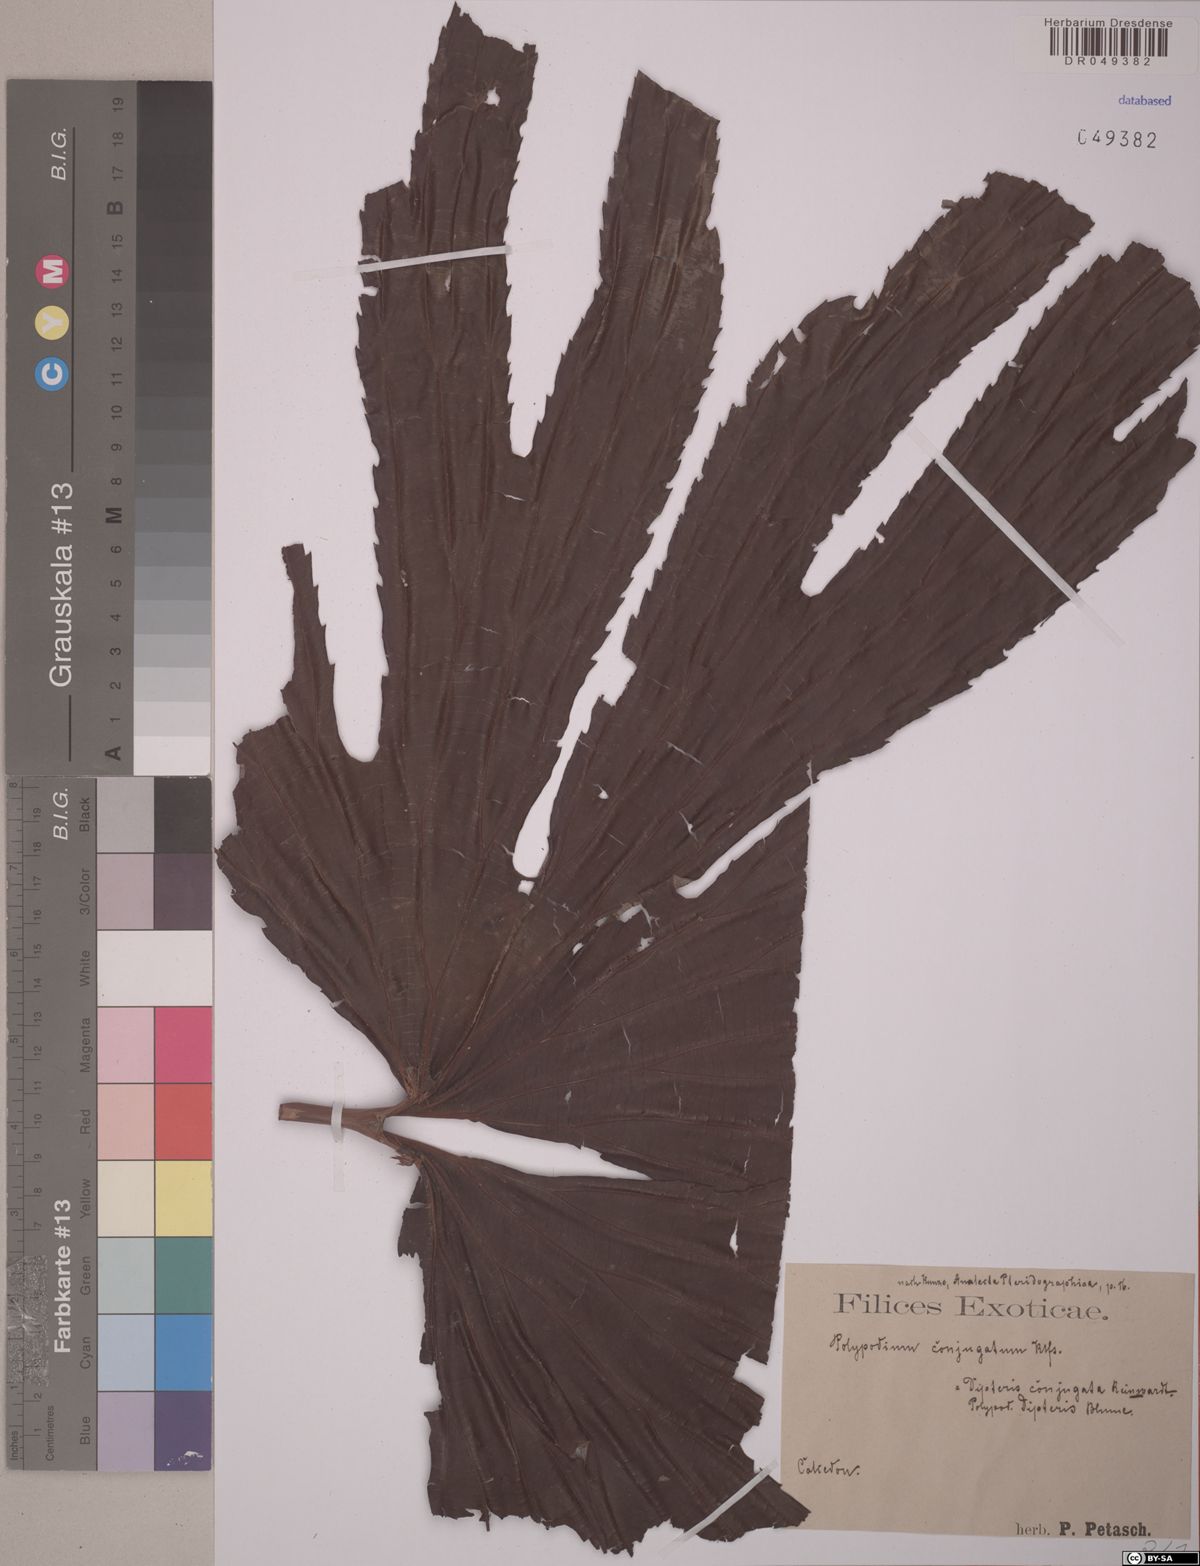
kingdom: Plantae
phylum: Tracheophyta
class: Polypodiopsida
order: Gleicheniales
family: Dipteridaceae
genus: Dipteris
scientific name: Dipteris conjugata
